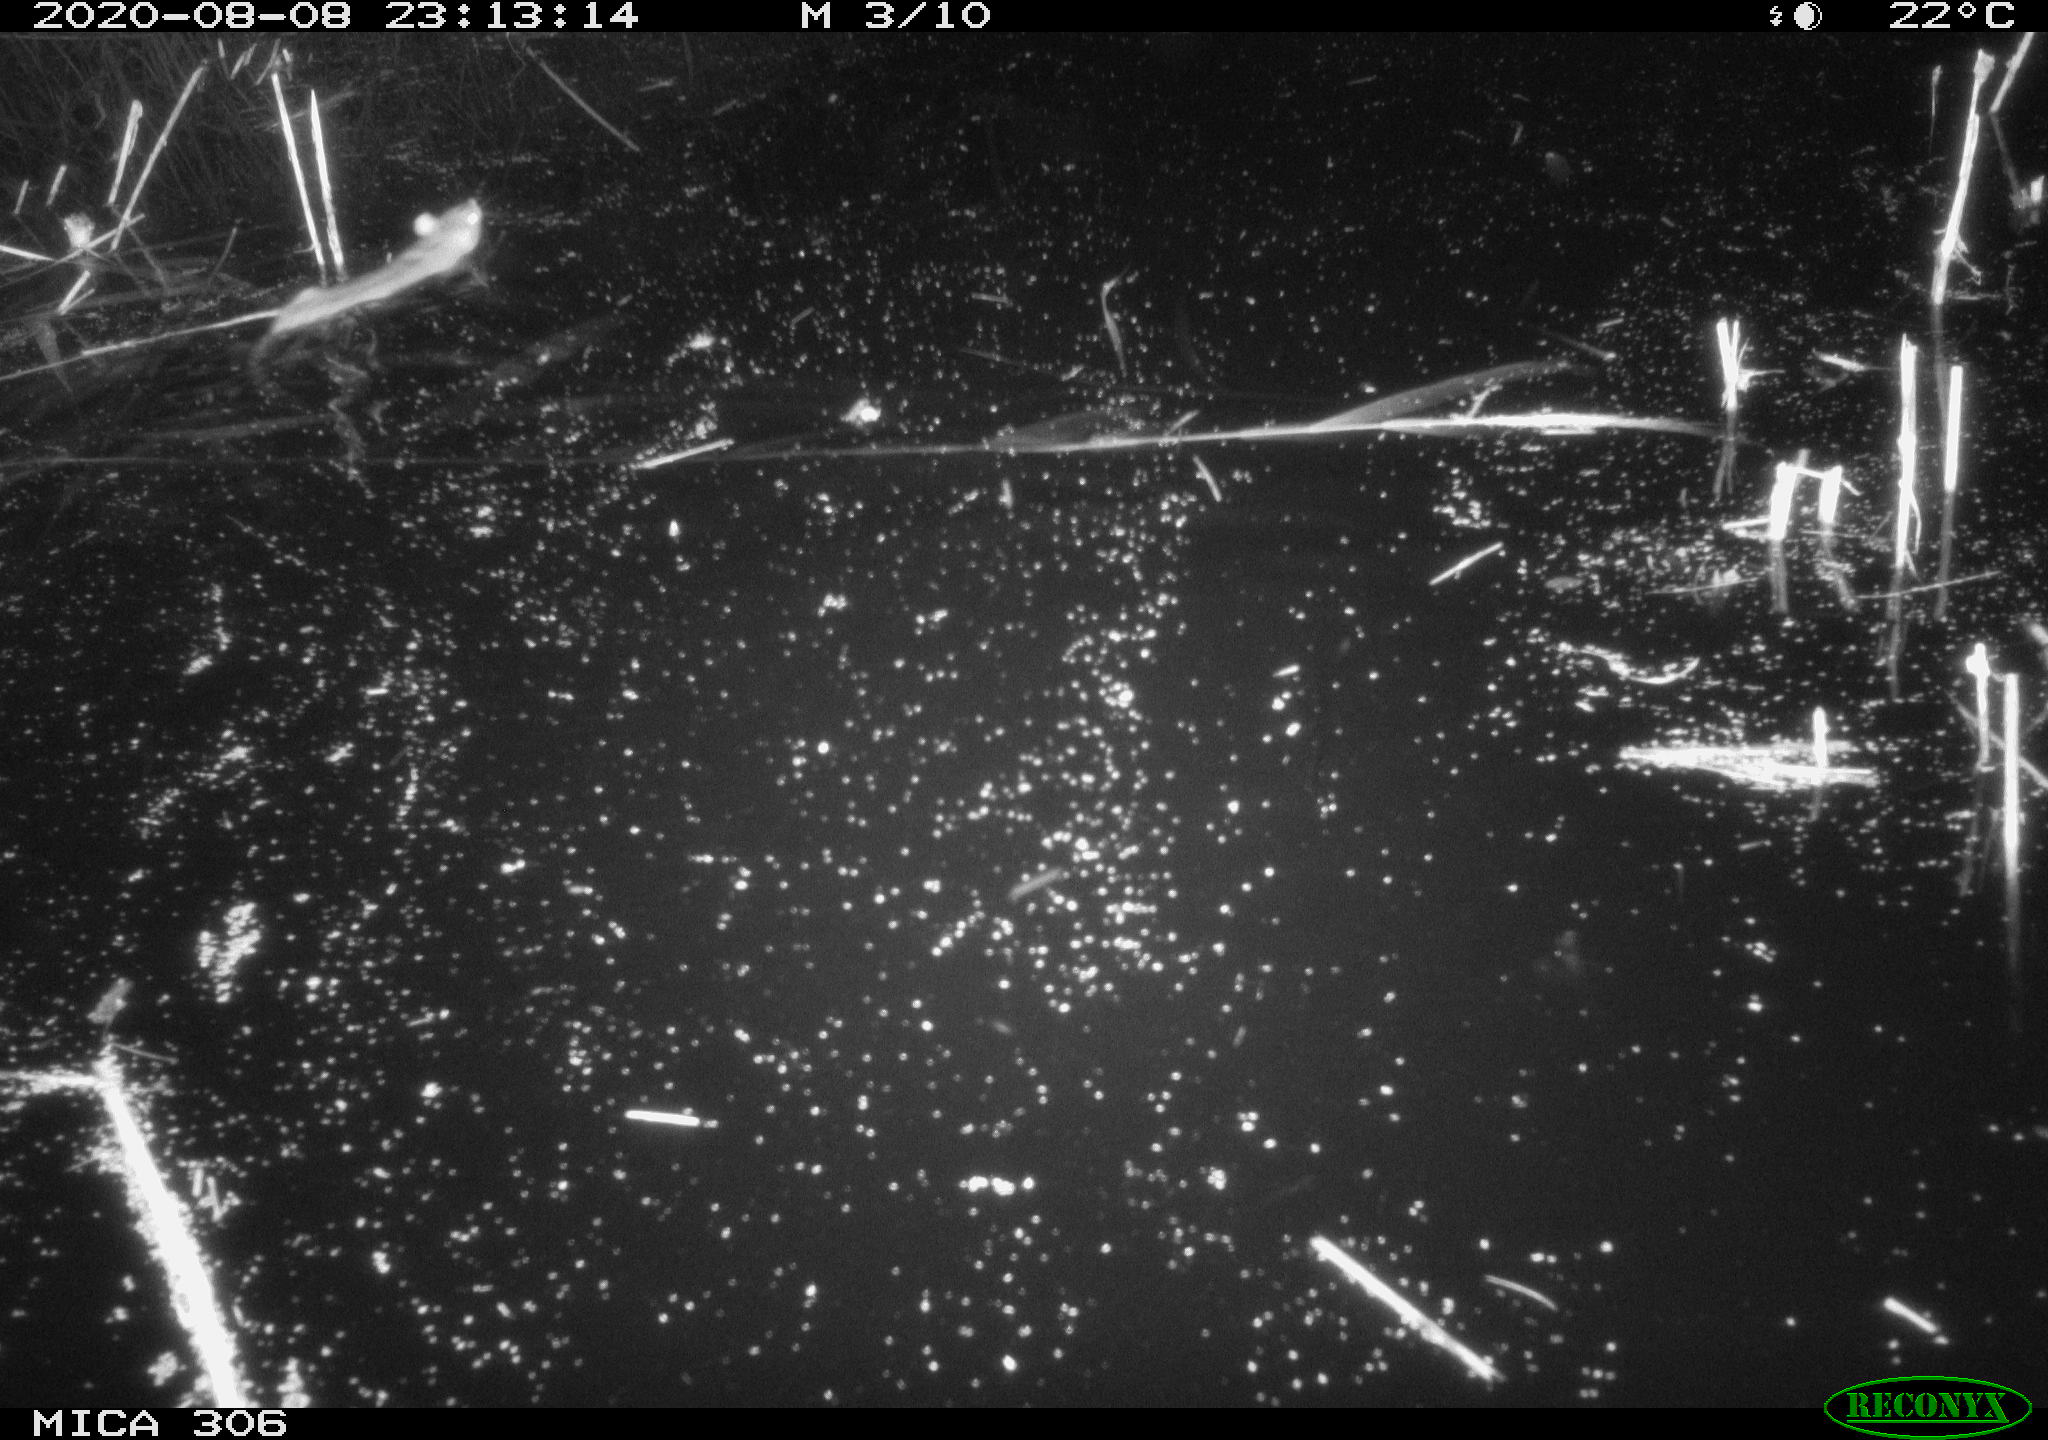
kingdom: Animalia
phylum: Chordata
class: Mammalia
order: Rodentia
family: Muridae
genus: Rattus
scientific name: Rattus norvegicus
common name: Brown rat
